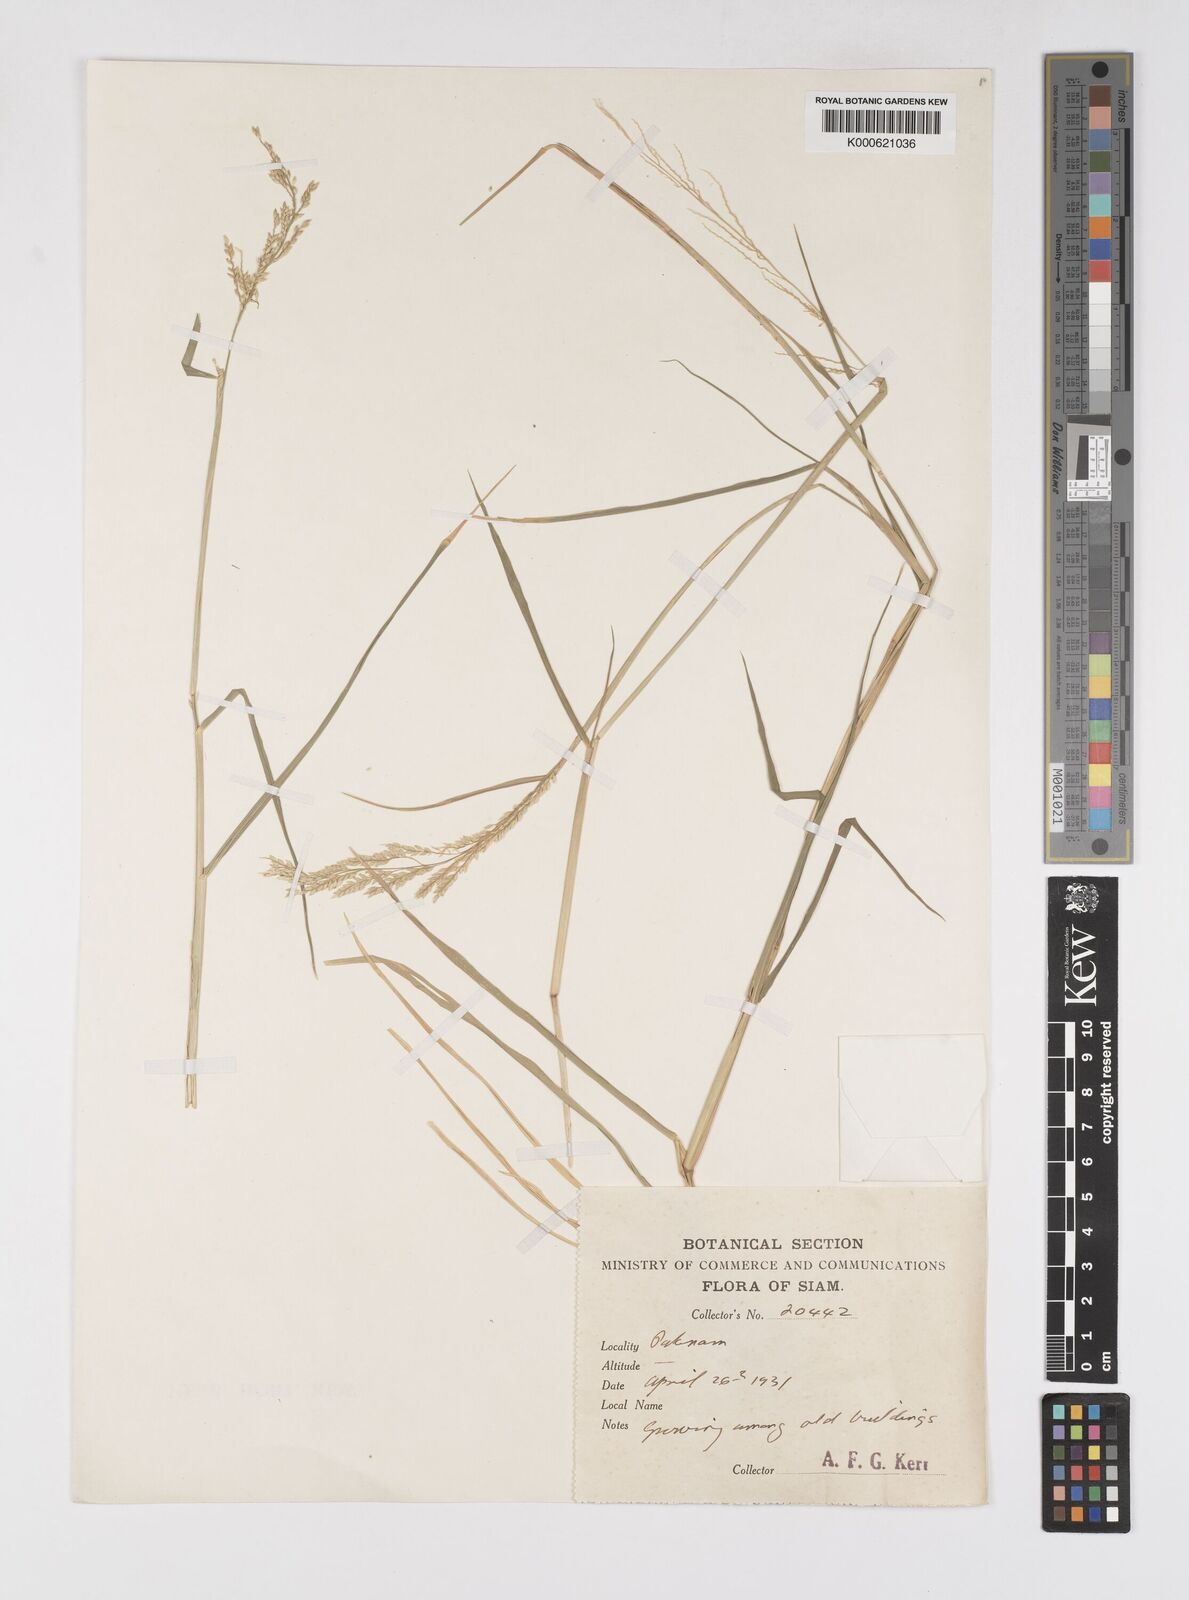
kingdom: Plantae
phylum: Tracheophyta
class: Liliopsida
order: Poales
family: Poaceae
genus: Eriochloa
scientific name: Eriochloa procera
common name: Spring grass
